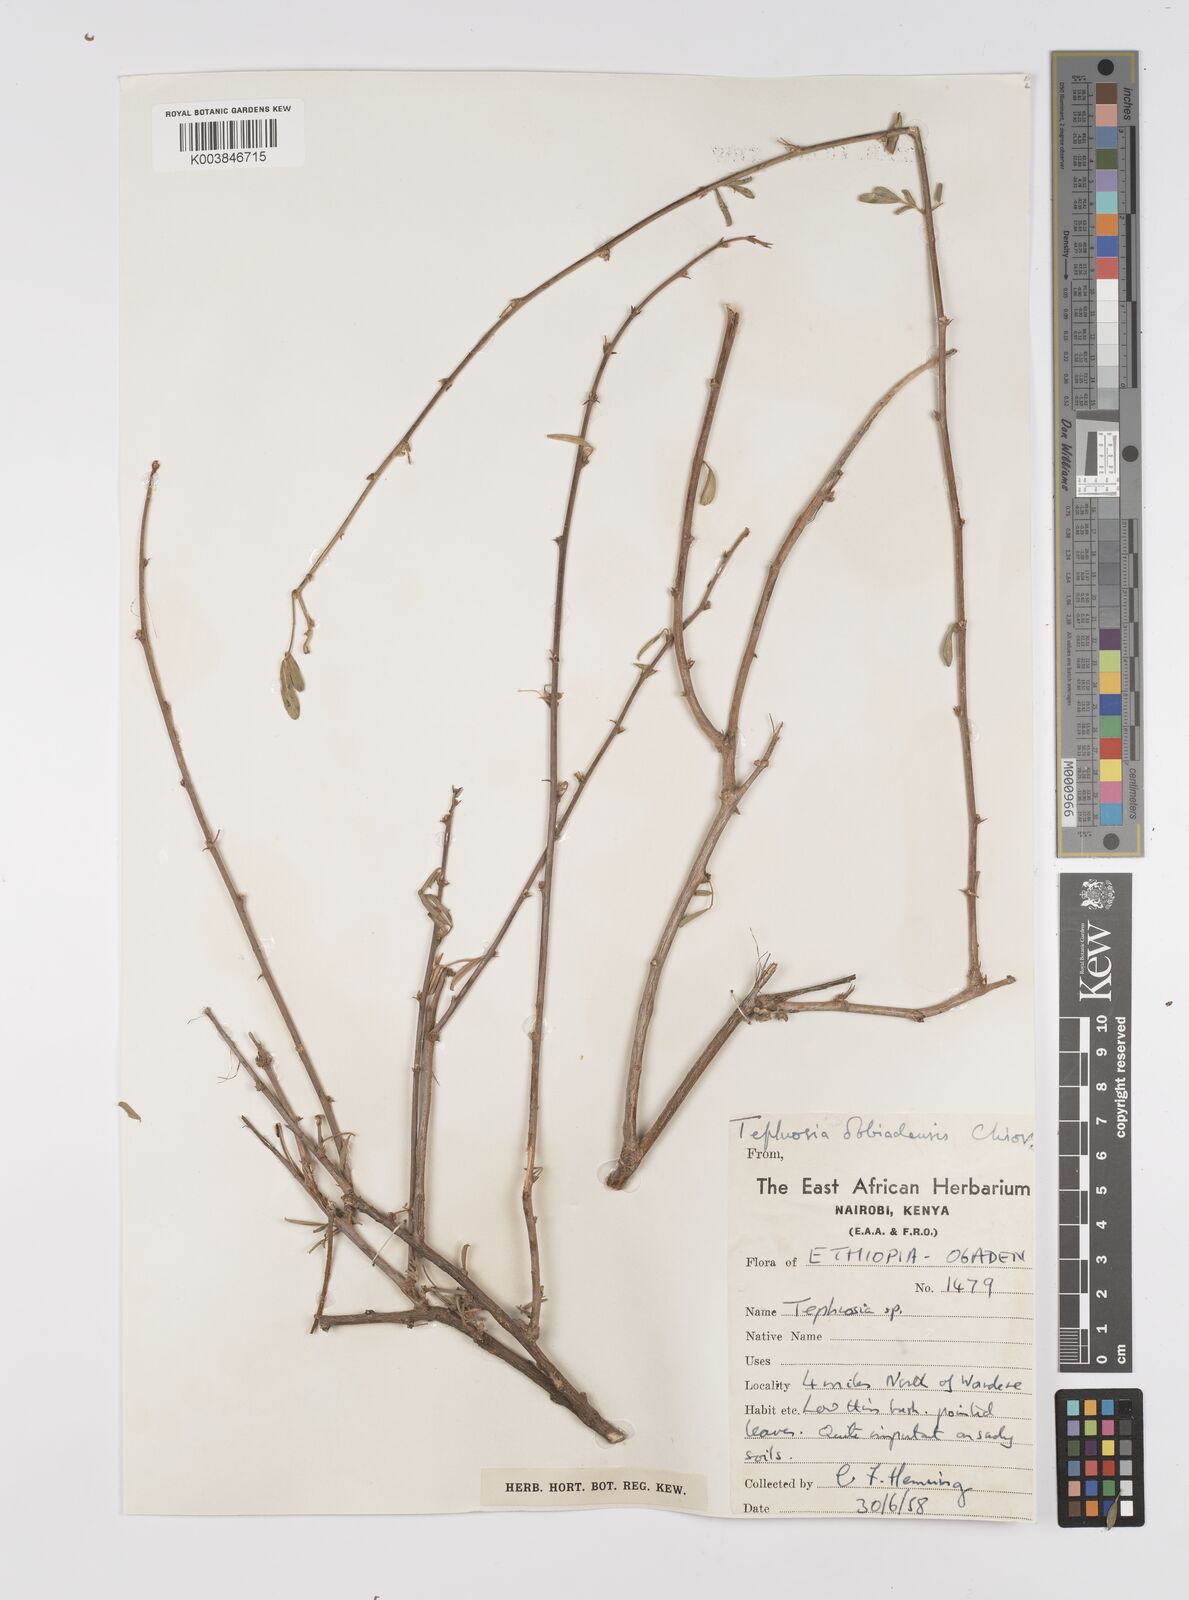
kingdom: Plantae
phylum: Tracheophyta
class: Magnoliopsida
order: Fabales
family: Fabaceae
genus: Tephrosia
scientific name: Tephrosia obbiadensis
